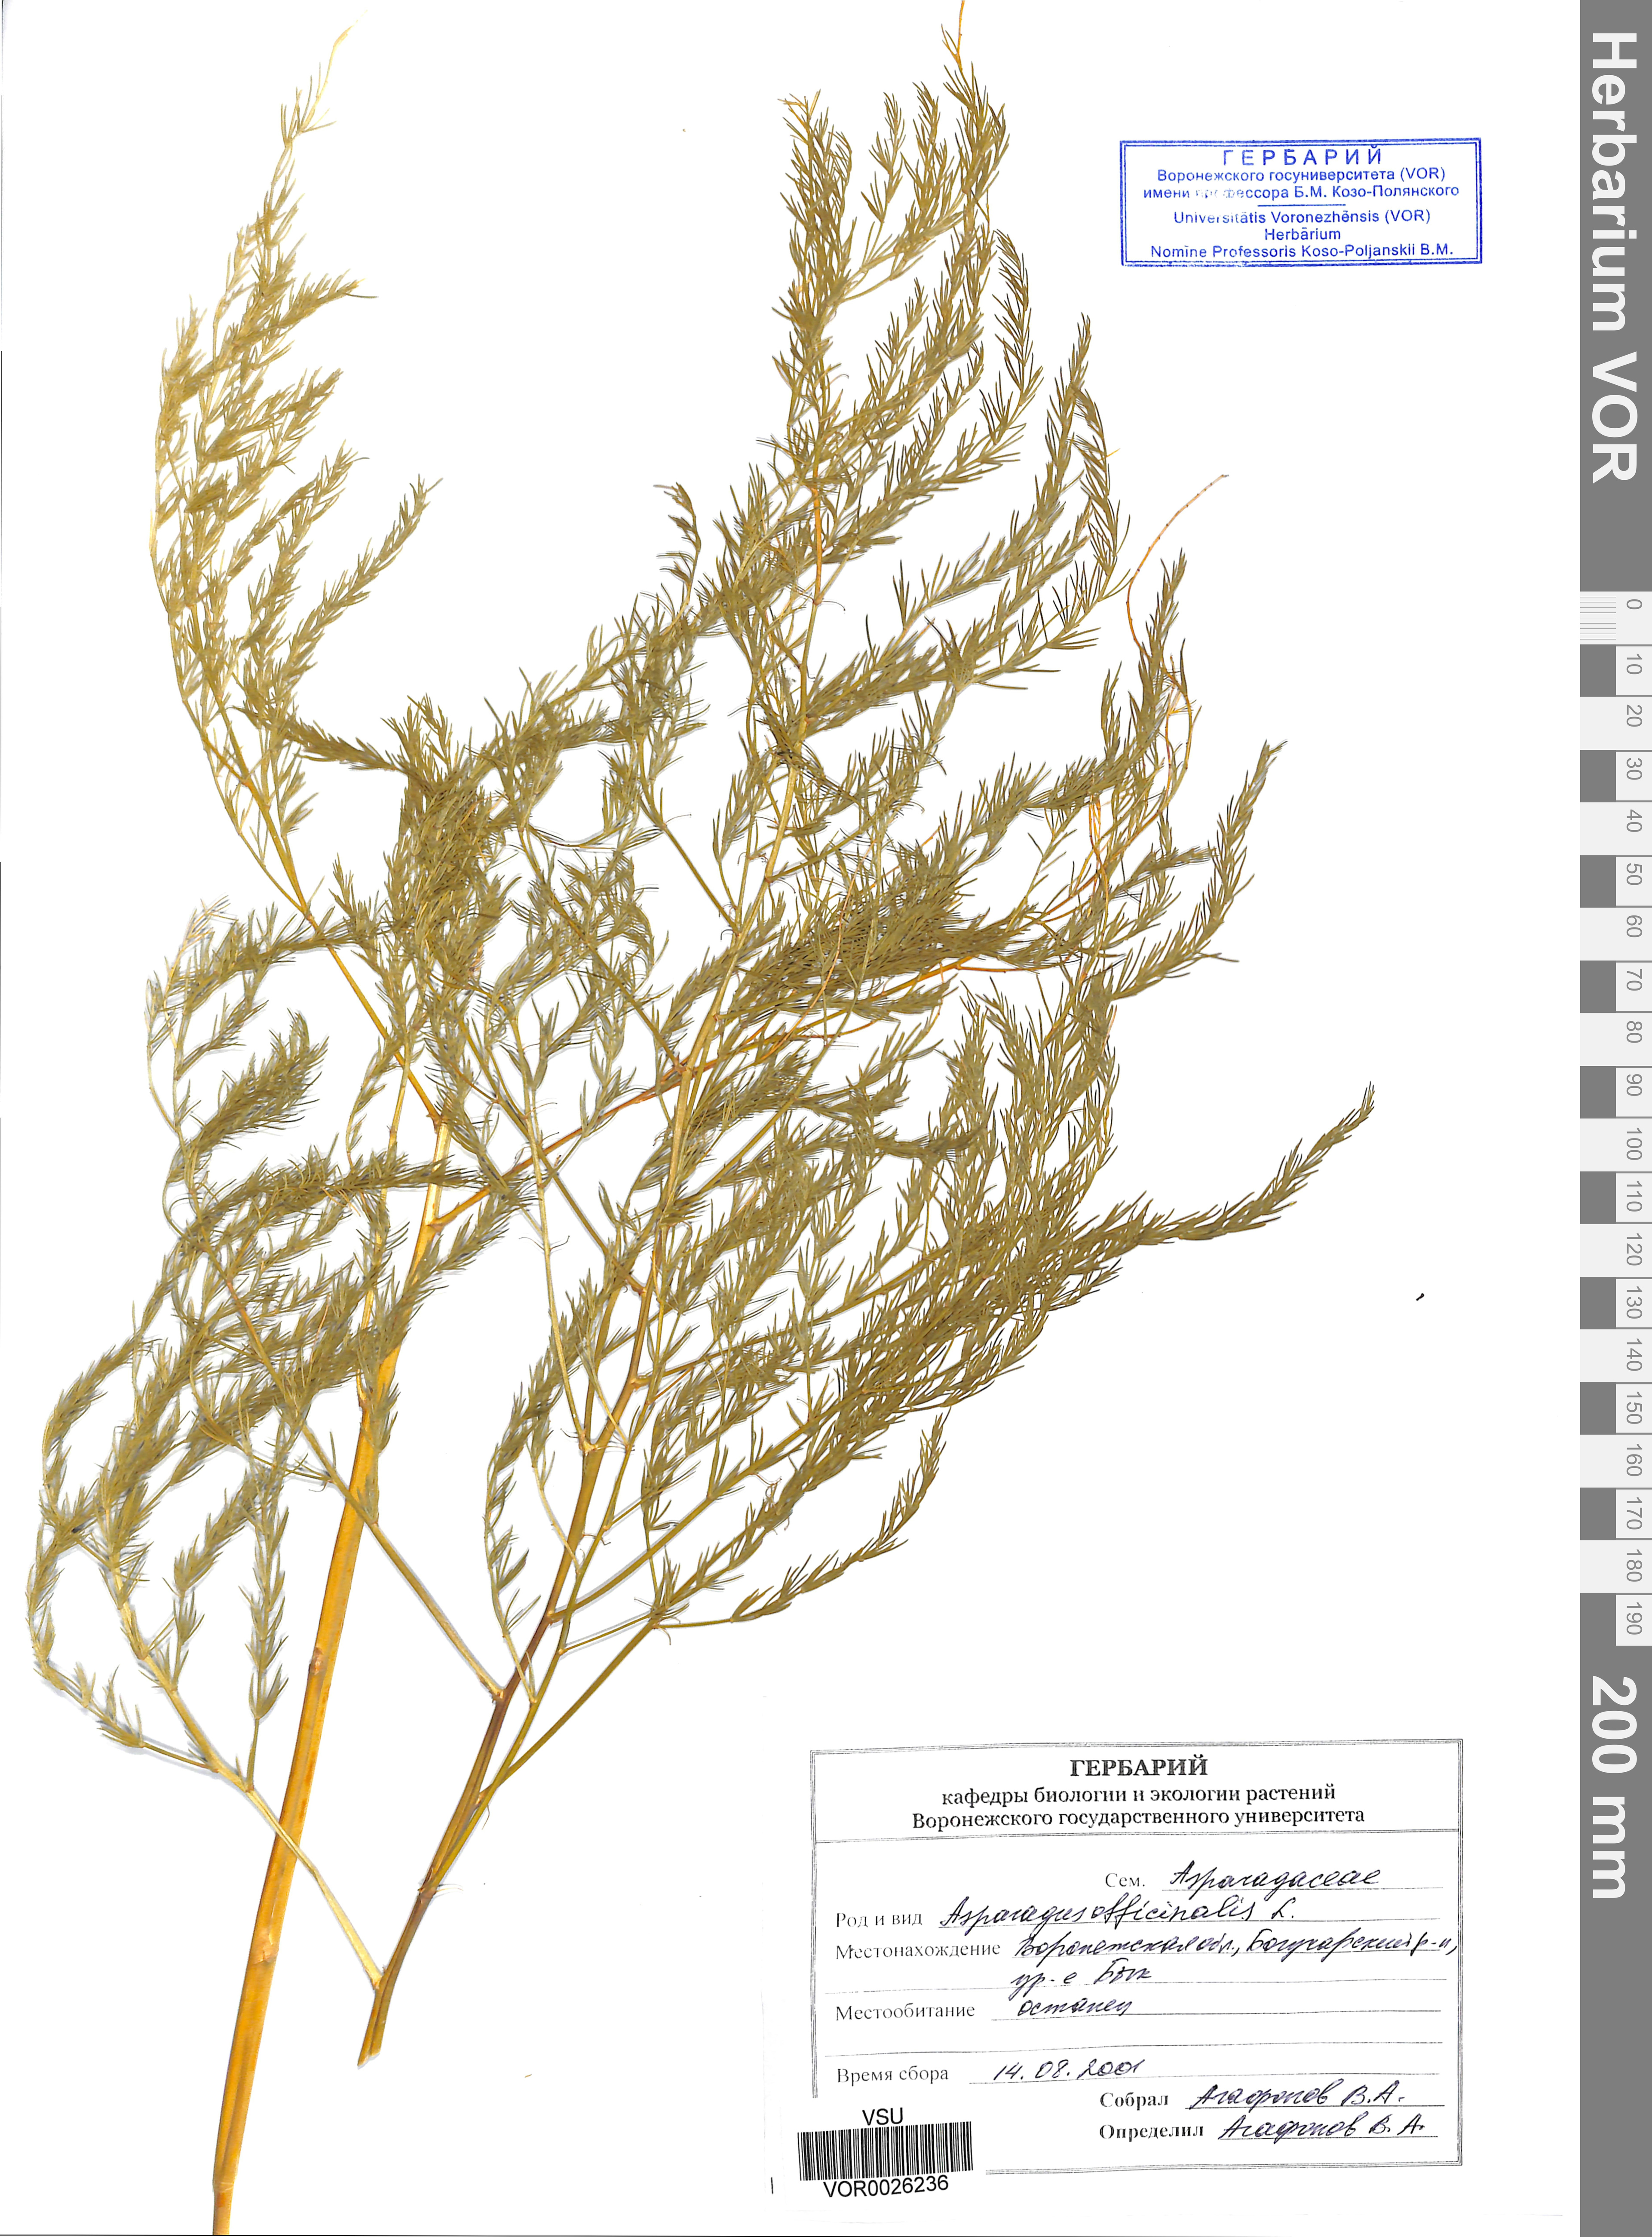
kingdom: Plantae
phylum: Tracheophyta
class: Liliopsida
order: Asparagales
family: Asparagaceae
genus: Asparagus
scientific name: Asparagus officinalis
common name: Garden asparagus
